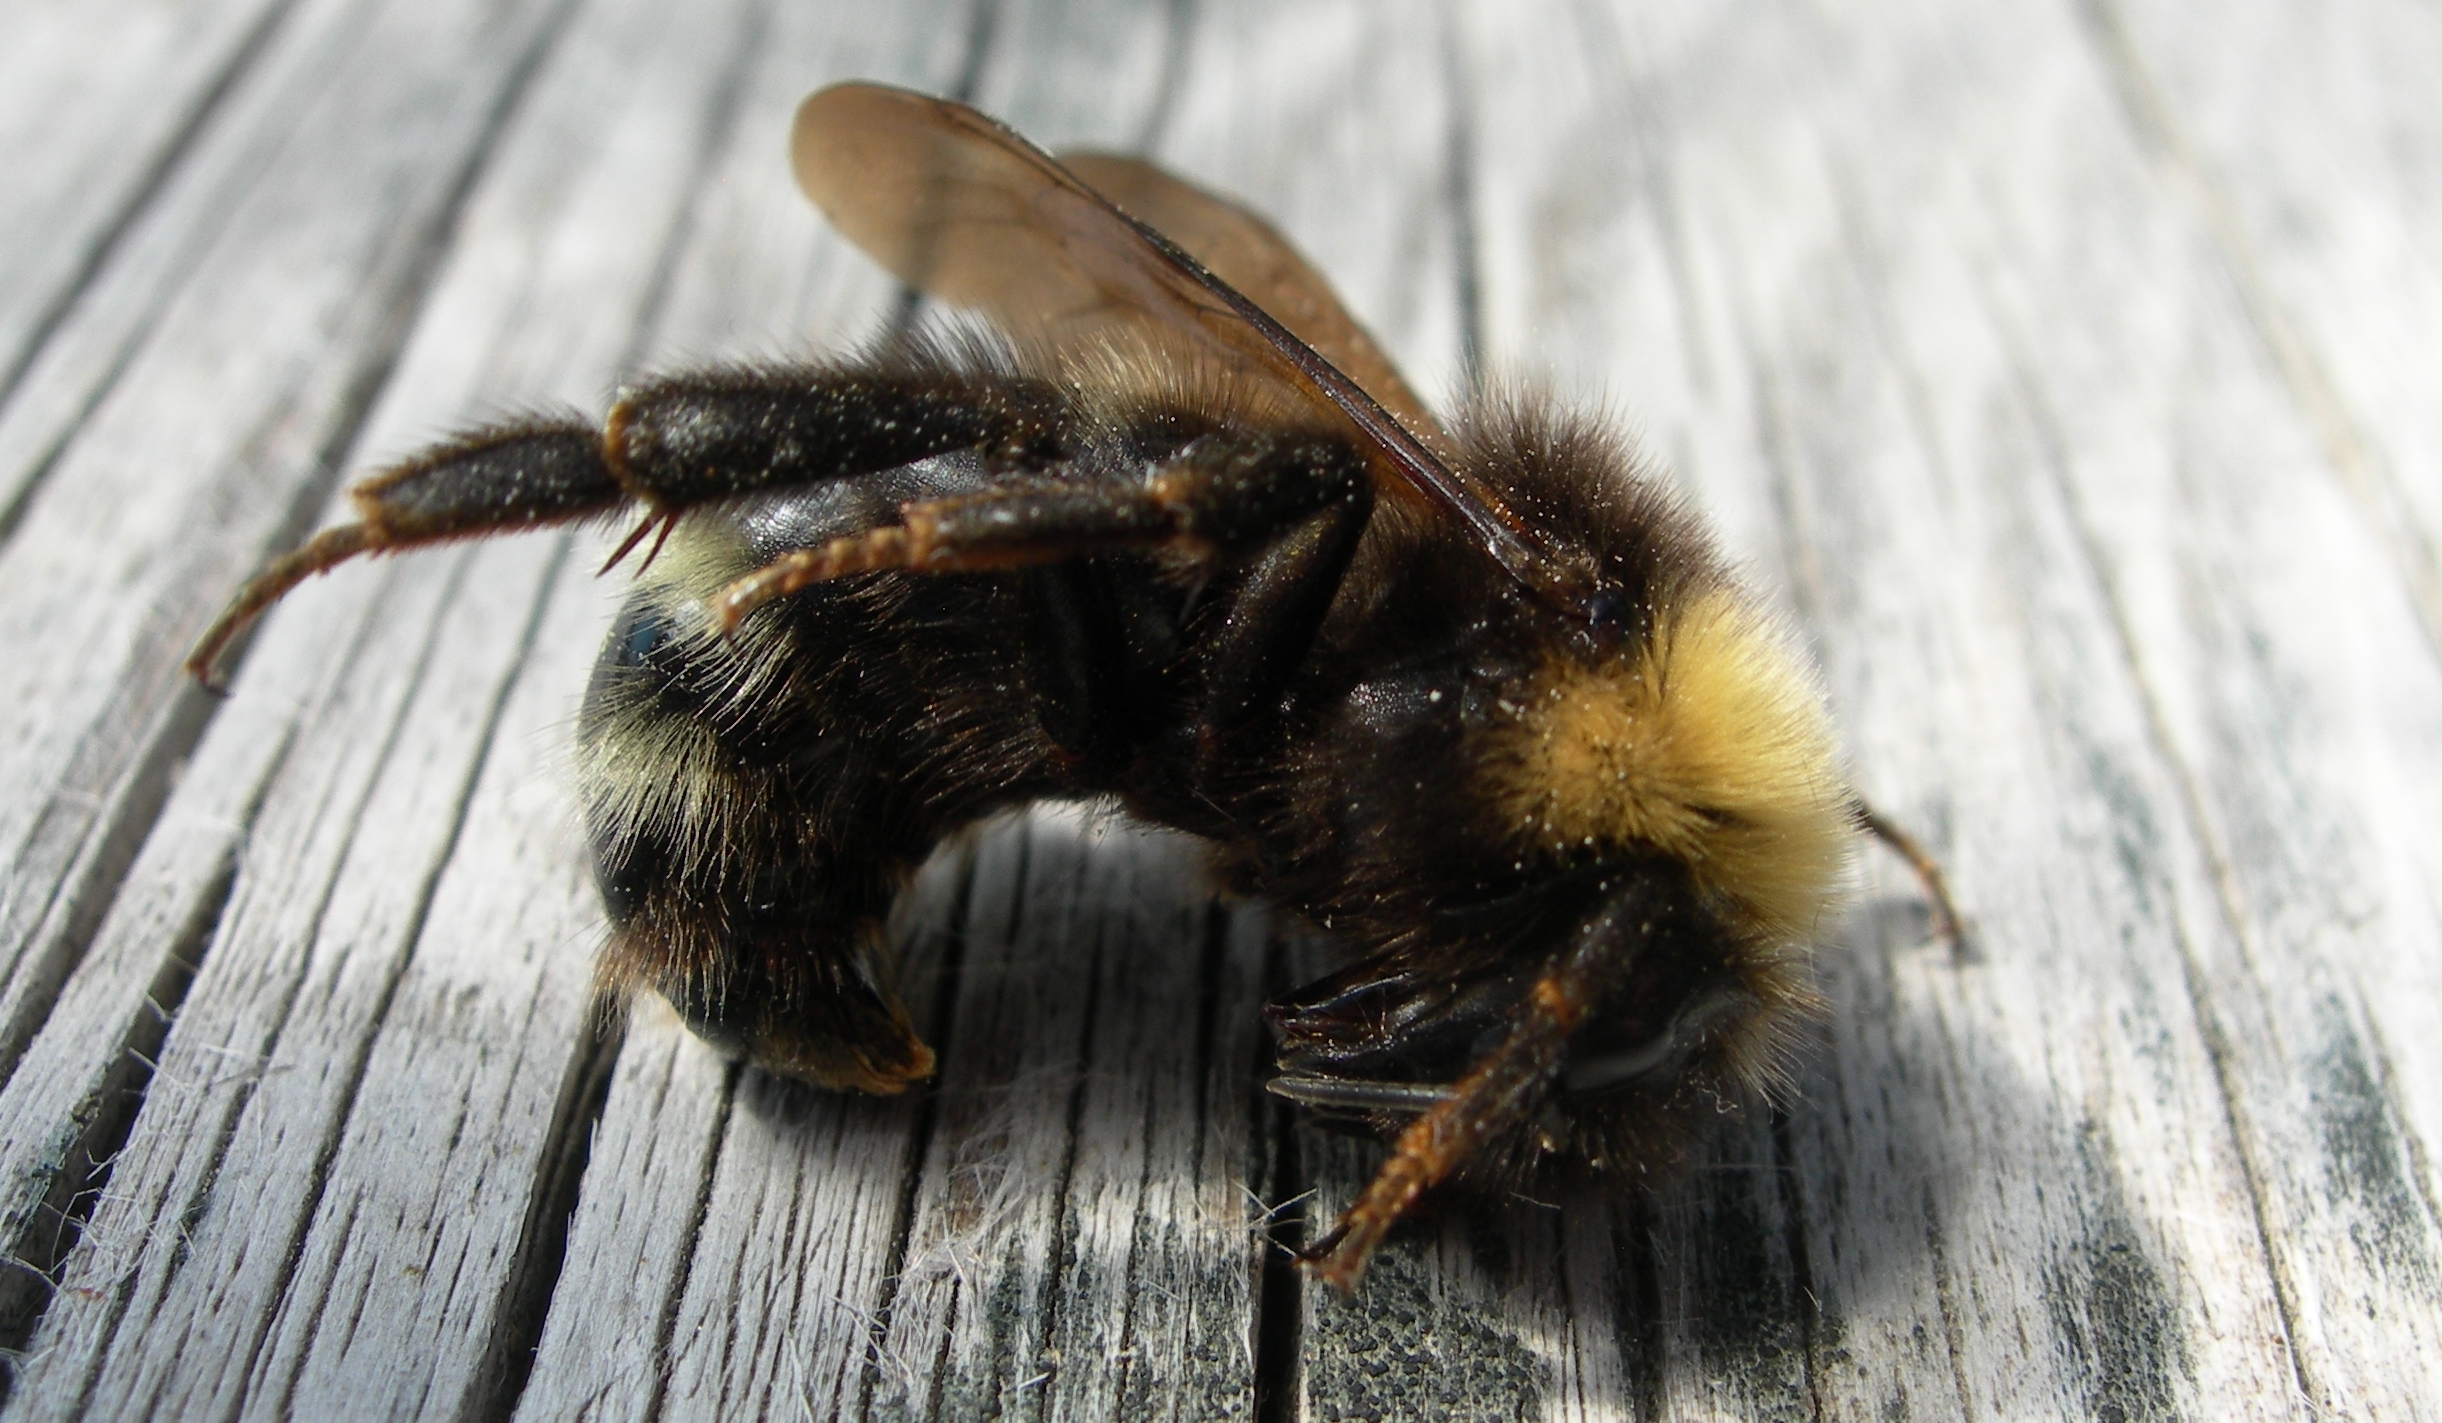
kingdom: Animalia
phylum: Arthropoda
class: Insecta
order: Hymenoptera
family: Apidae
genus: Bombus
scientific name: Bombus norvegicus
